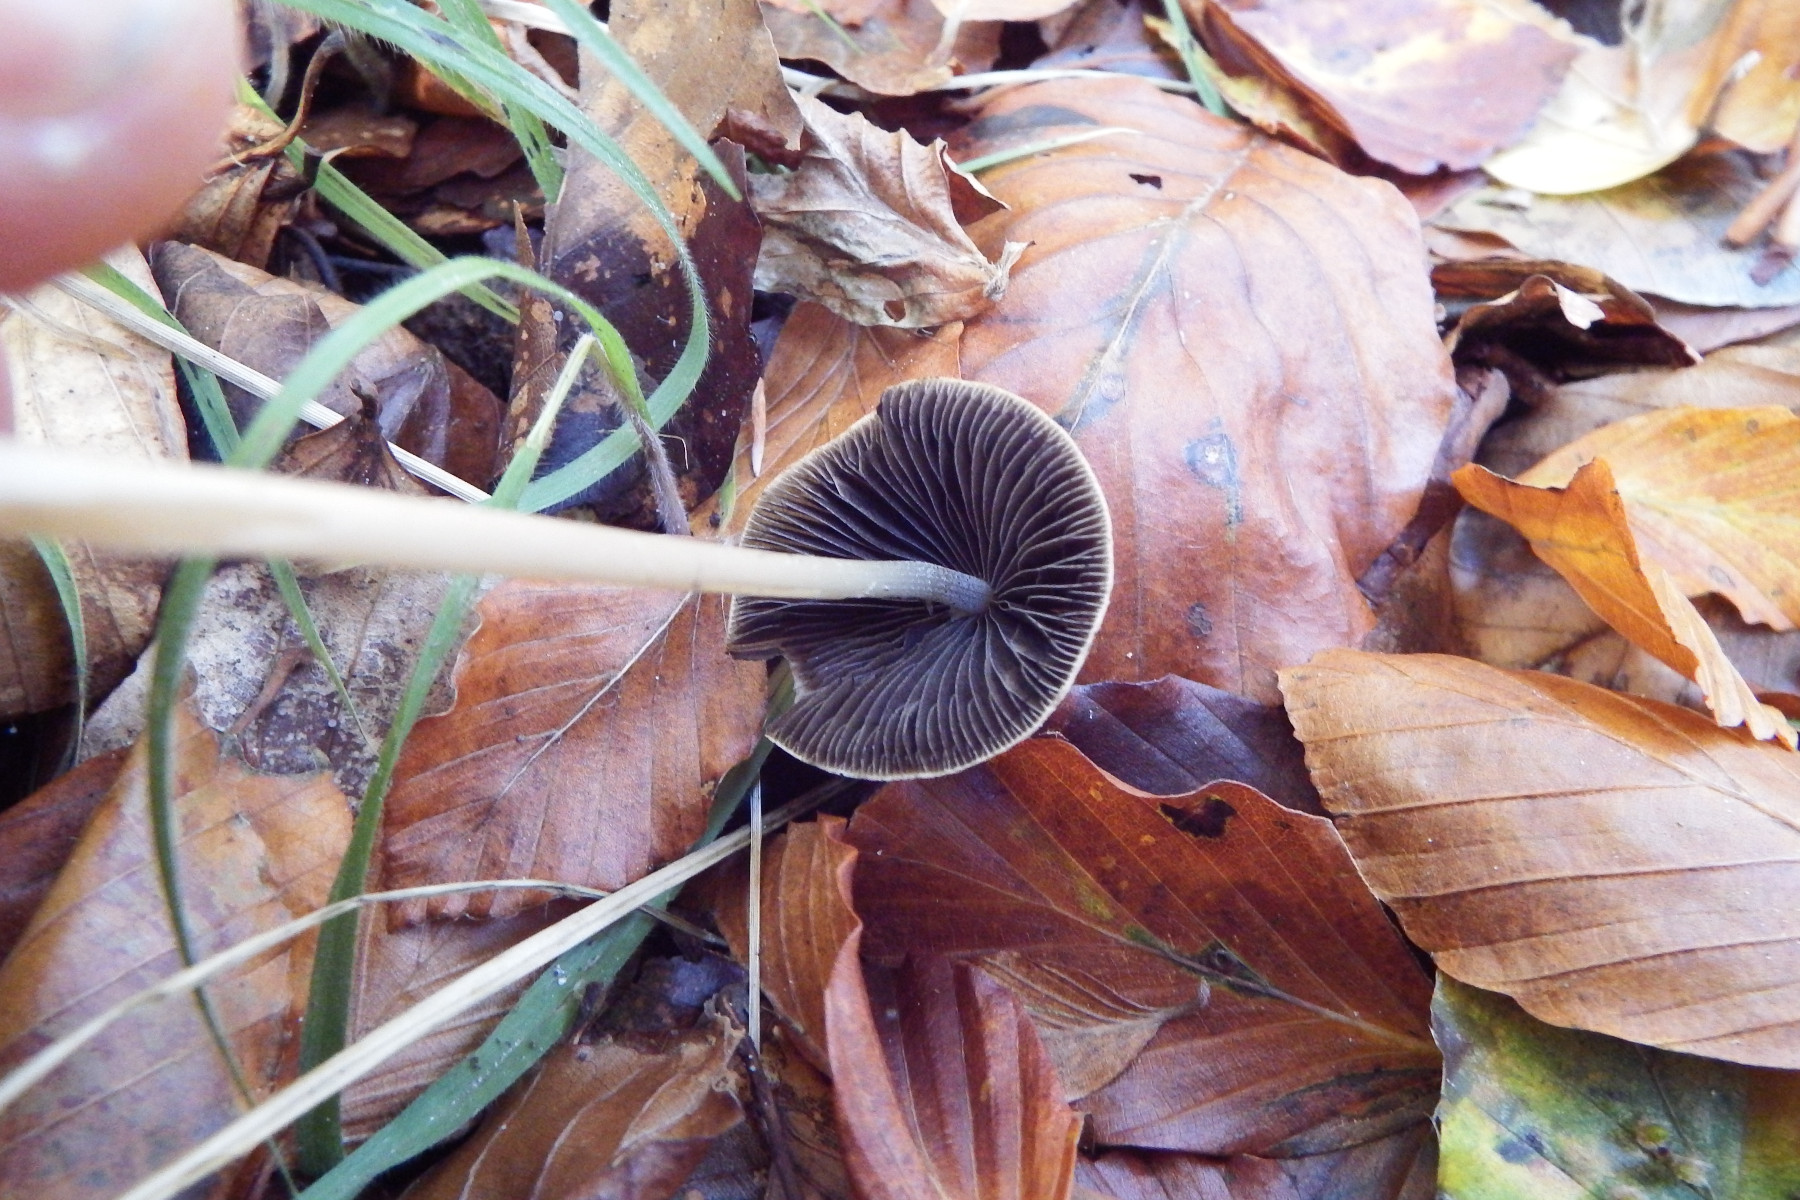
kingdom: Fungi
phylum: Basidiomycota
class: Agaricomycetes
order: Agaricales
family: Psathyrellaceae
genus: Parasola
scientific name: Parasola conopilea
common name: kegle-hjulhat
